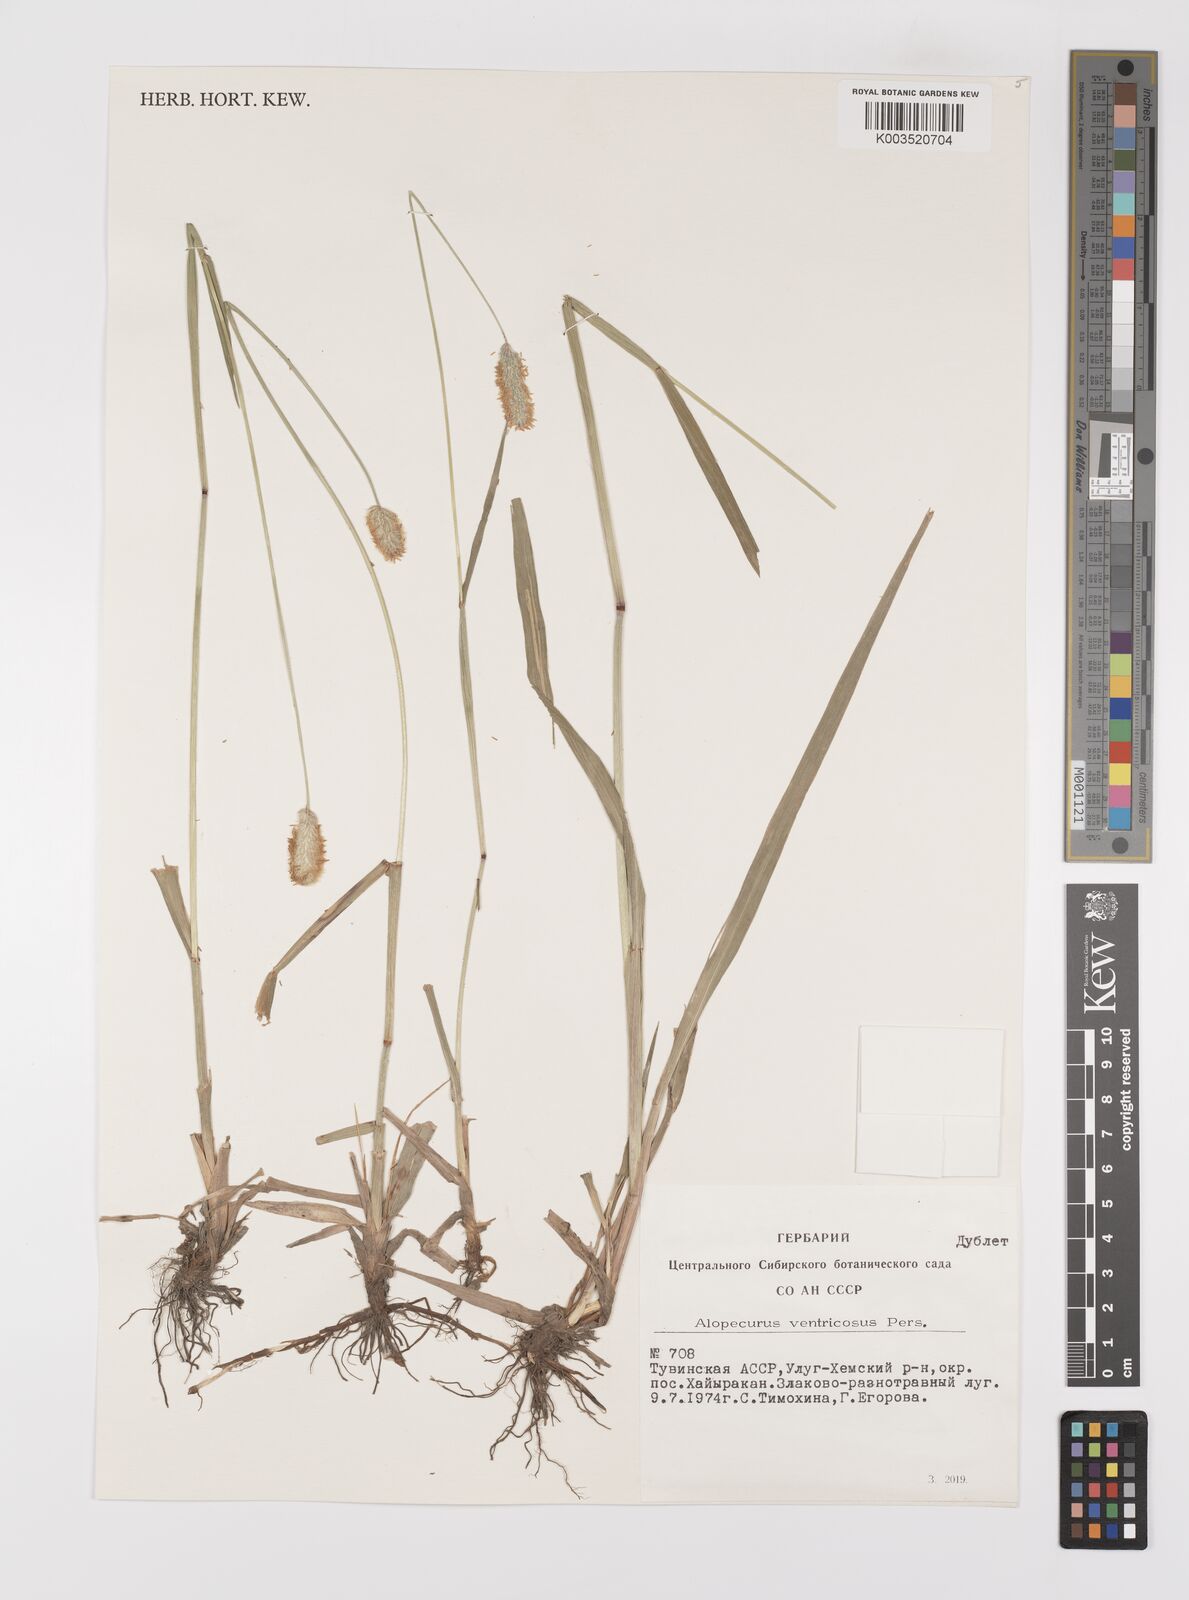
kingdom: Plantae
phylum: Tracheophyta
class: Liliopsida
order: Poales
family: Poaceae
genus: Alopecurus
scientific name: Alopecurus arundinaceus
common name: Creeping meadow foxtail
